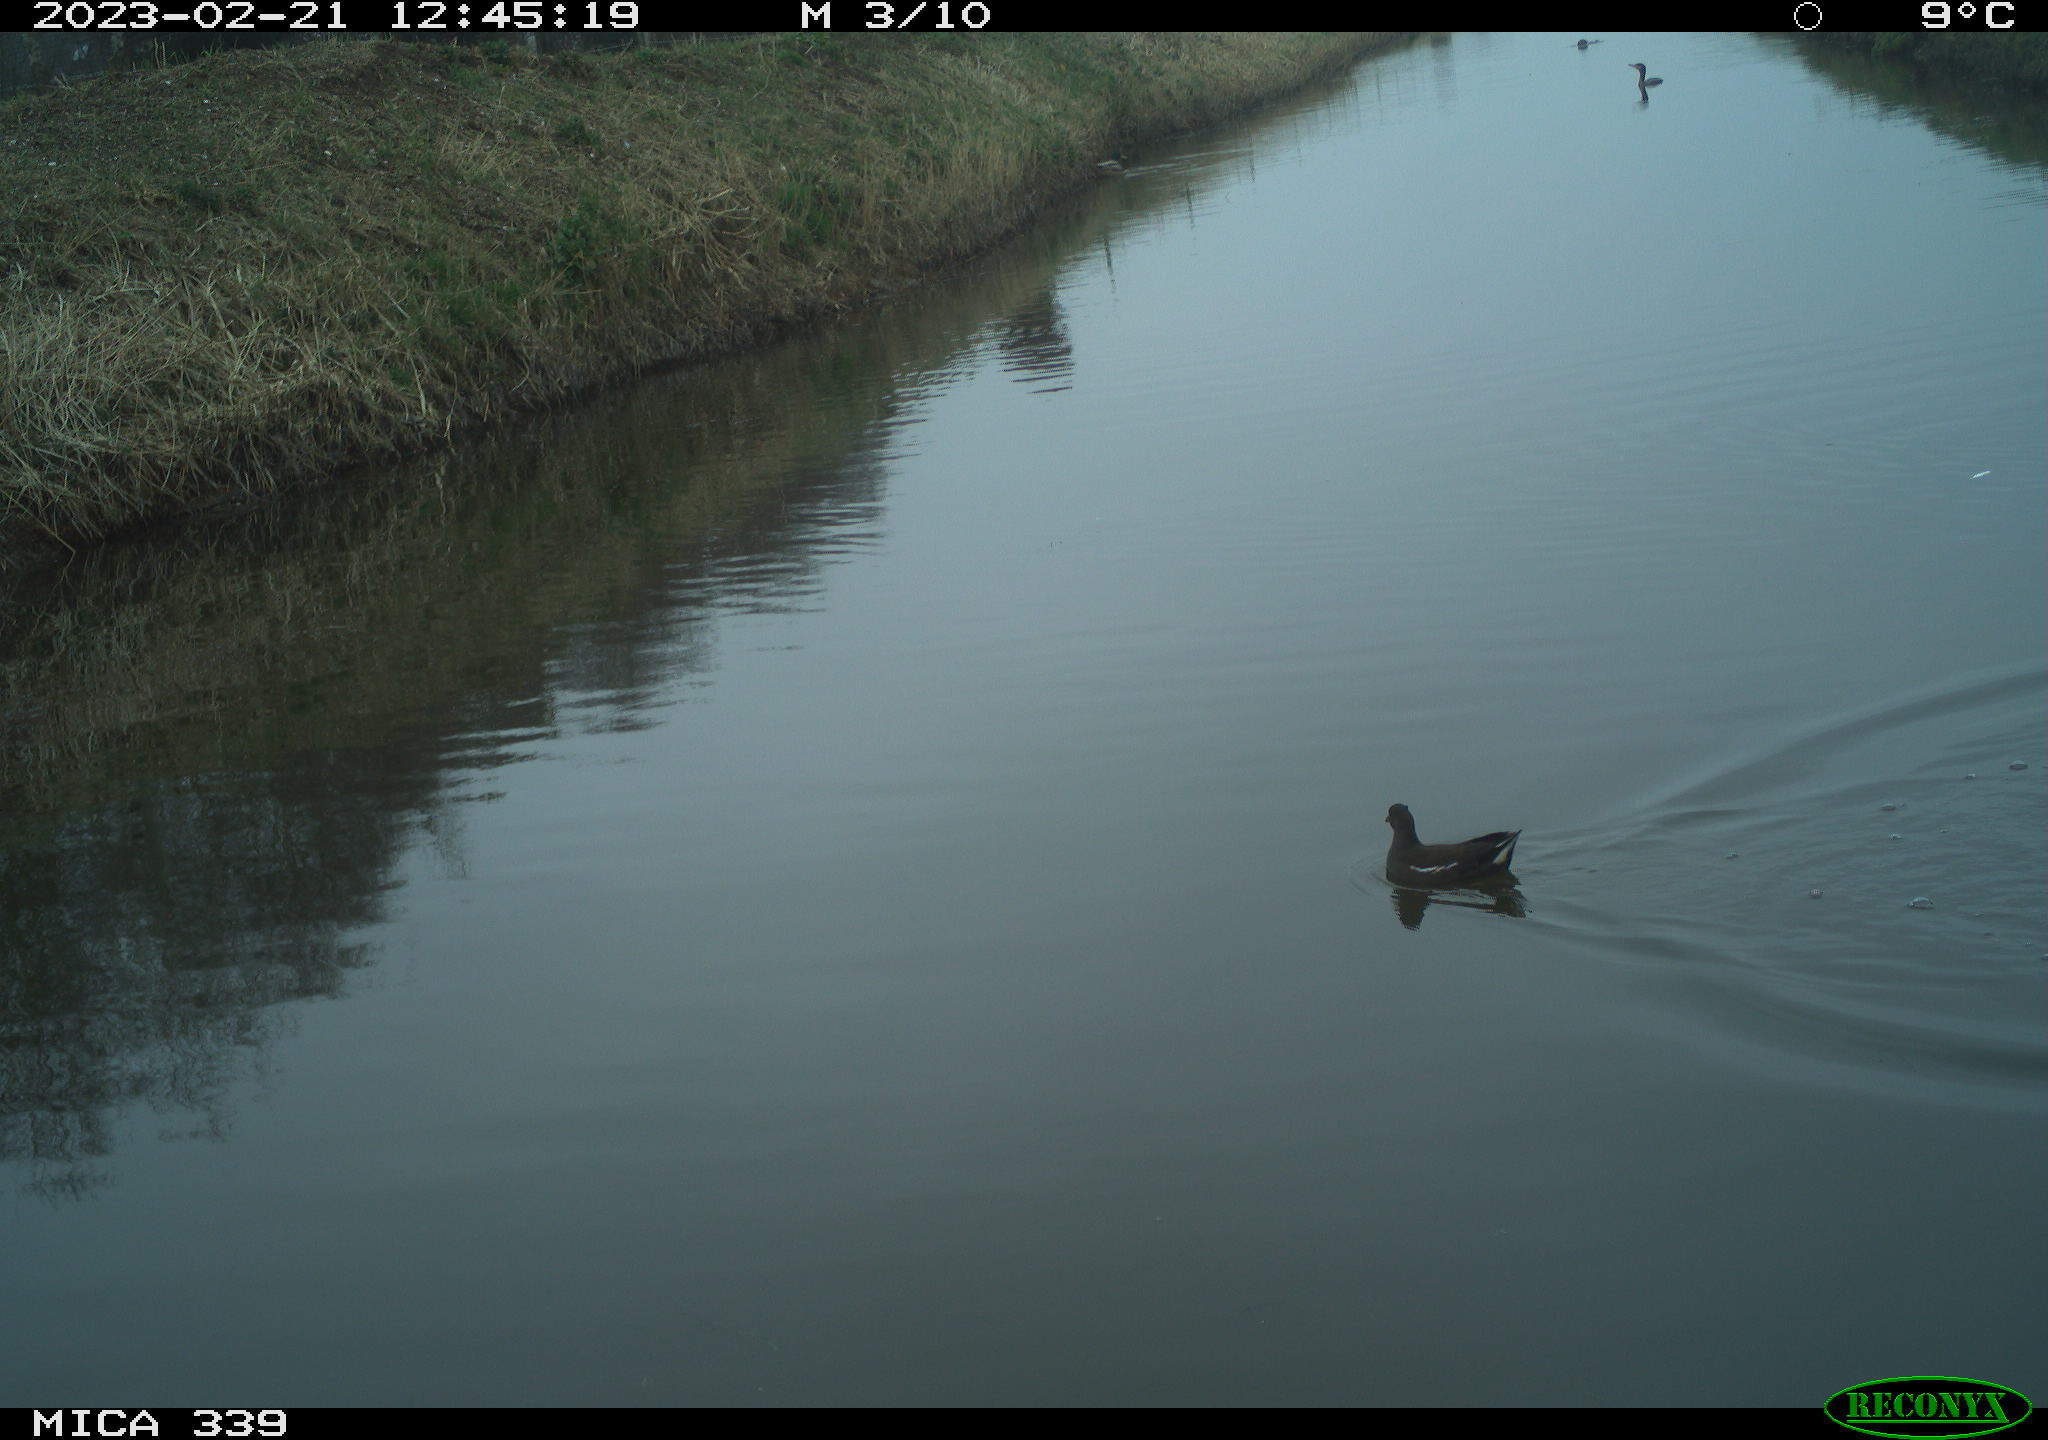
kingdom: Animalia
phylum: Chordata
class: Aves
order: Gruiformes
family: Rallidae
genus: Gallinula
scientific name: Gallinula chloropus
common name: Common moorhen
